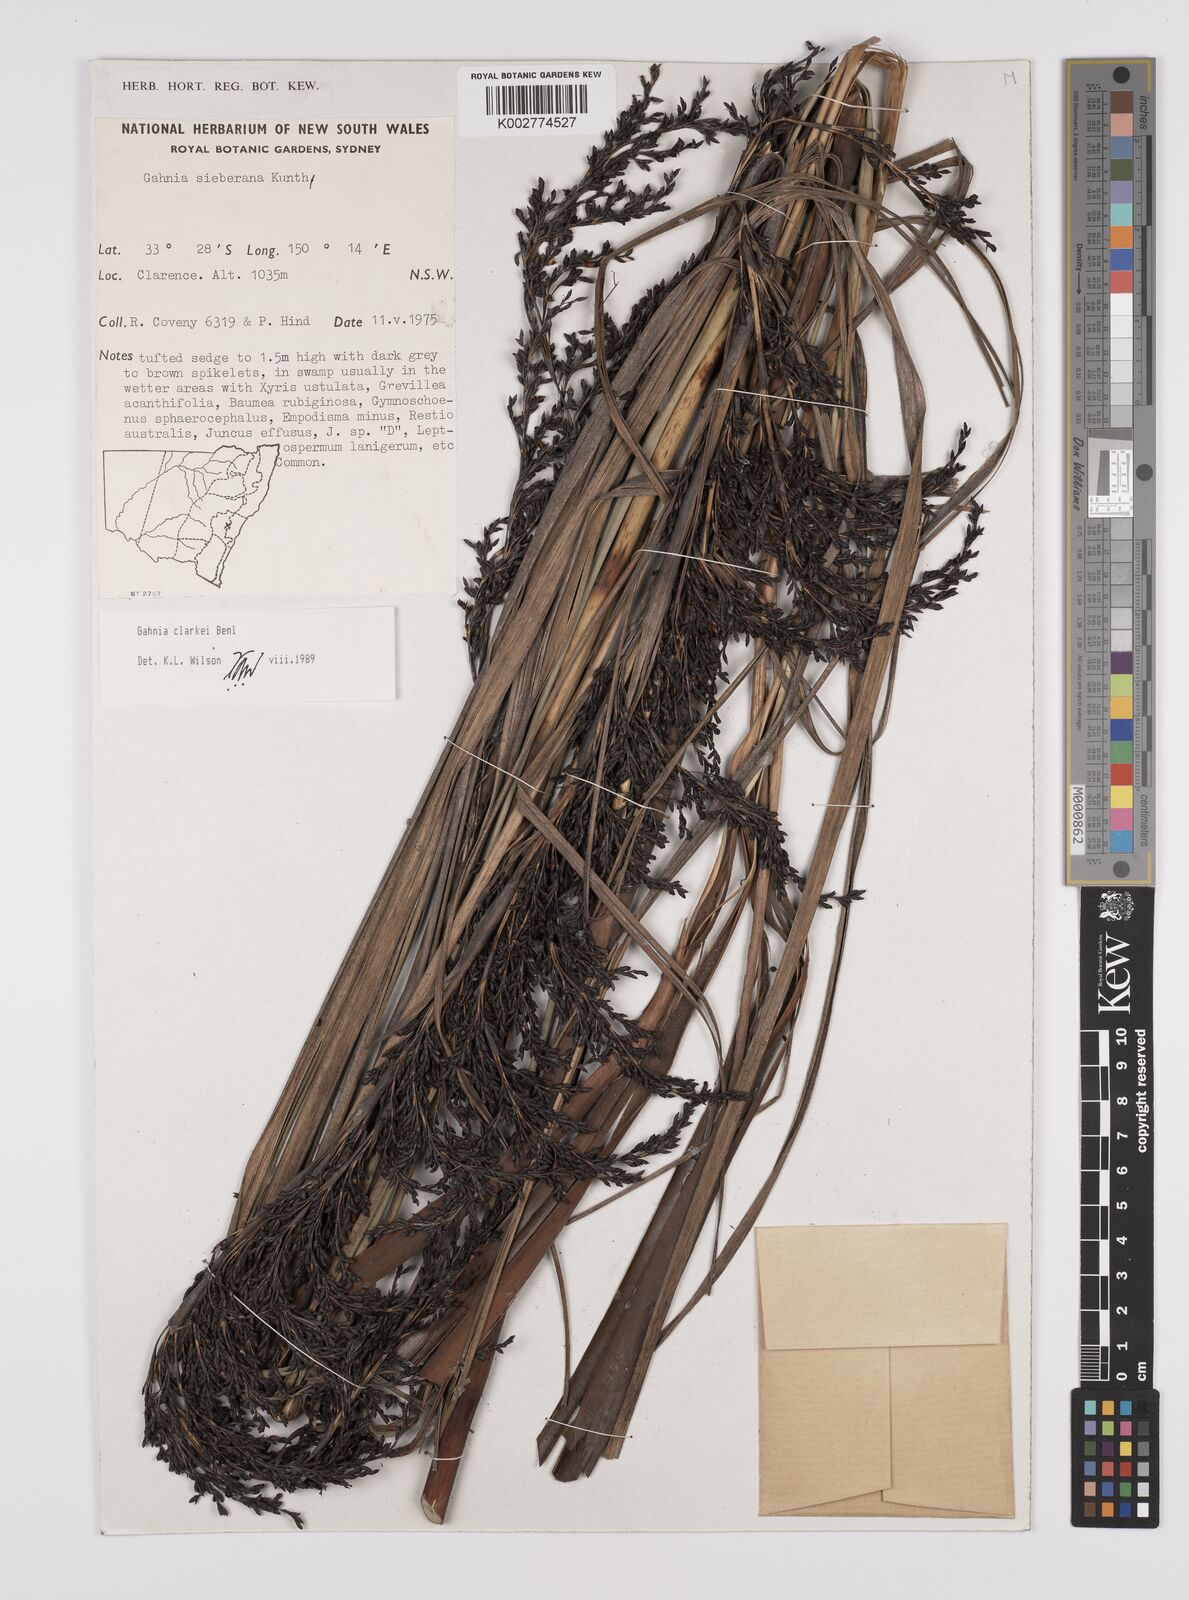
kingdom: Plantae
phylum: Tracheophyta
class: Liliopsida
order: Poales
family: Cyperaceae
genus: Gahnia
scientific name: Gahnia
